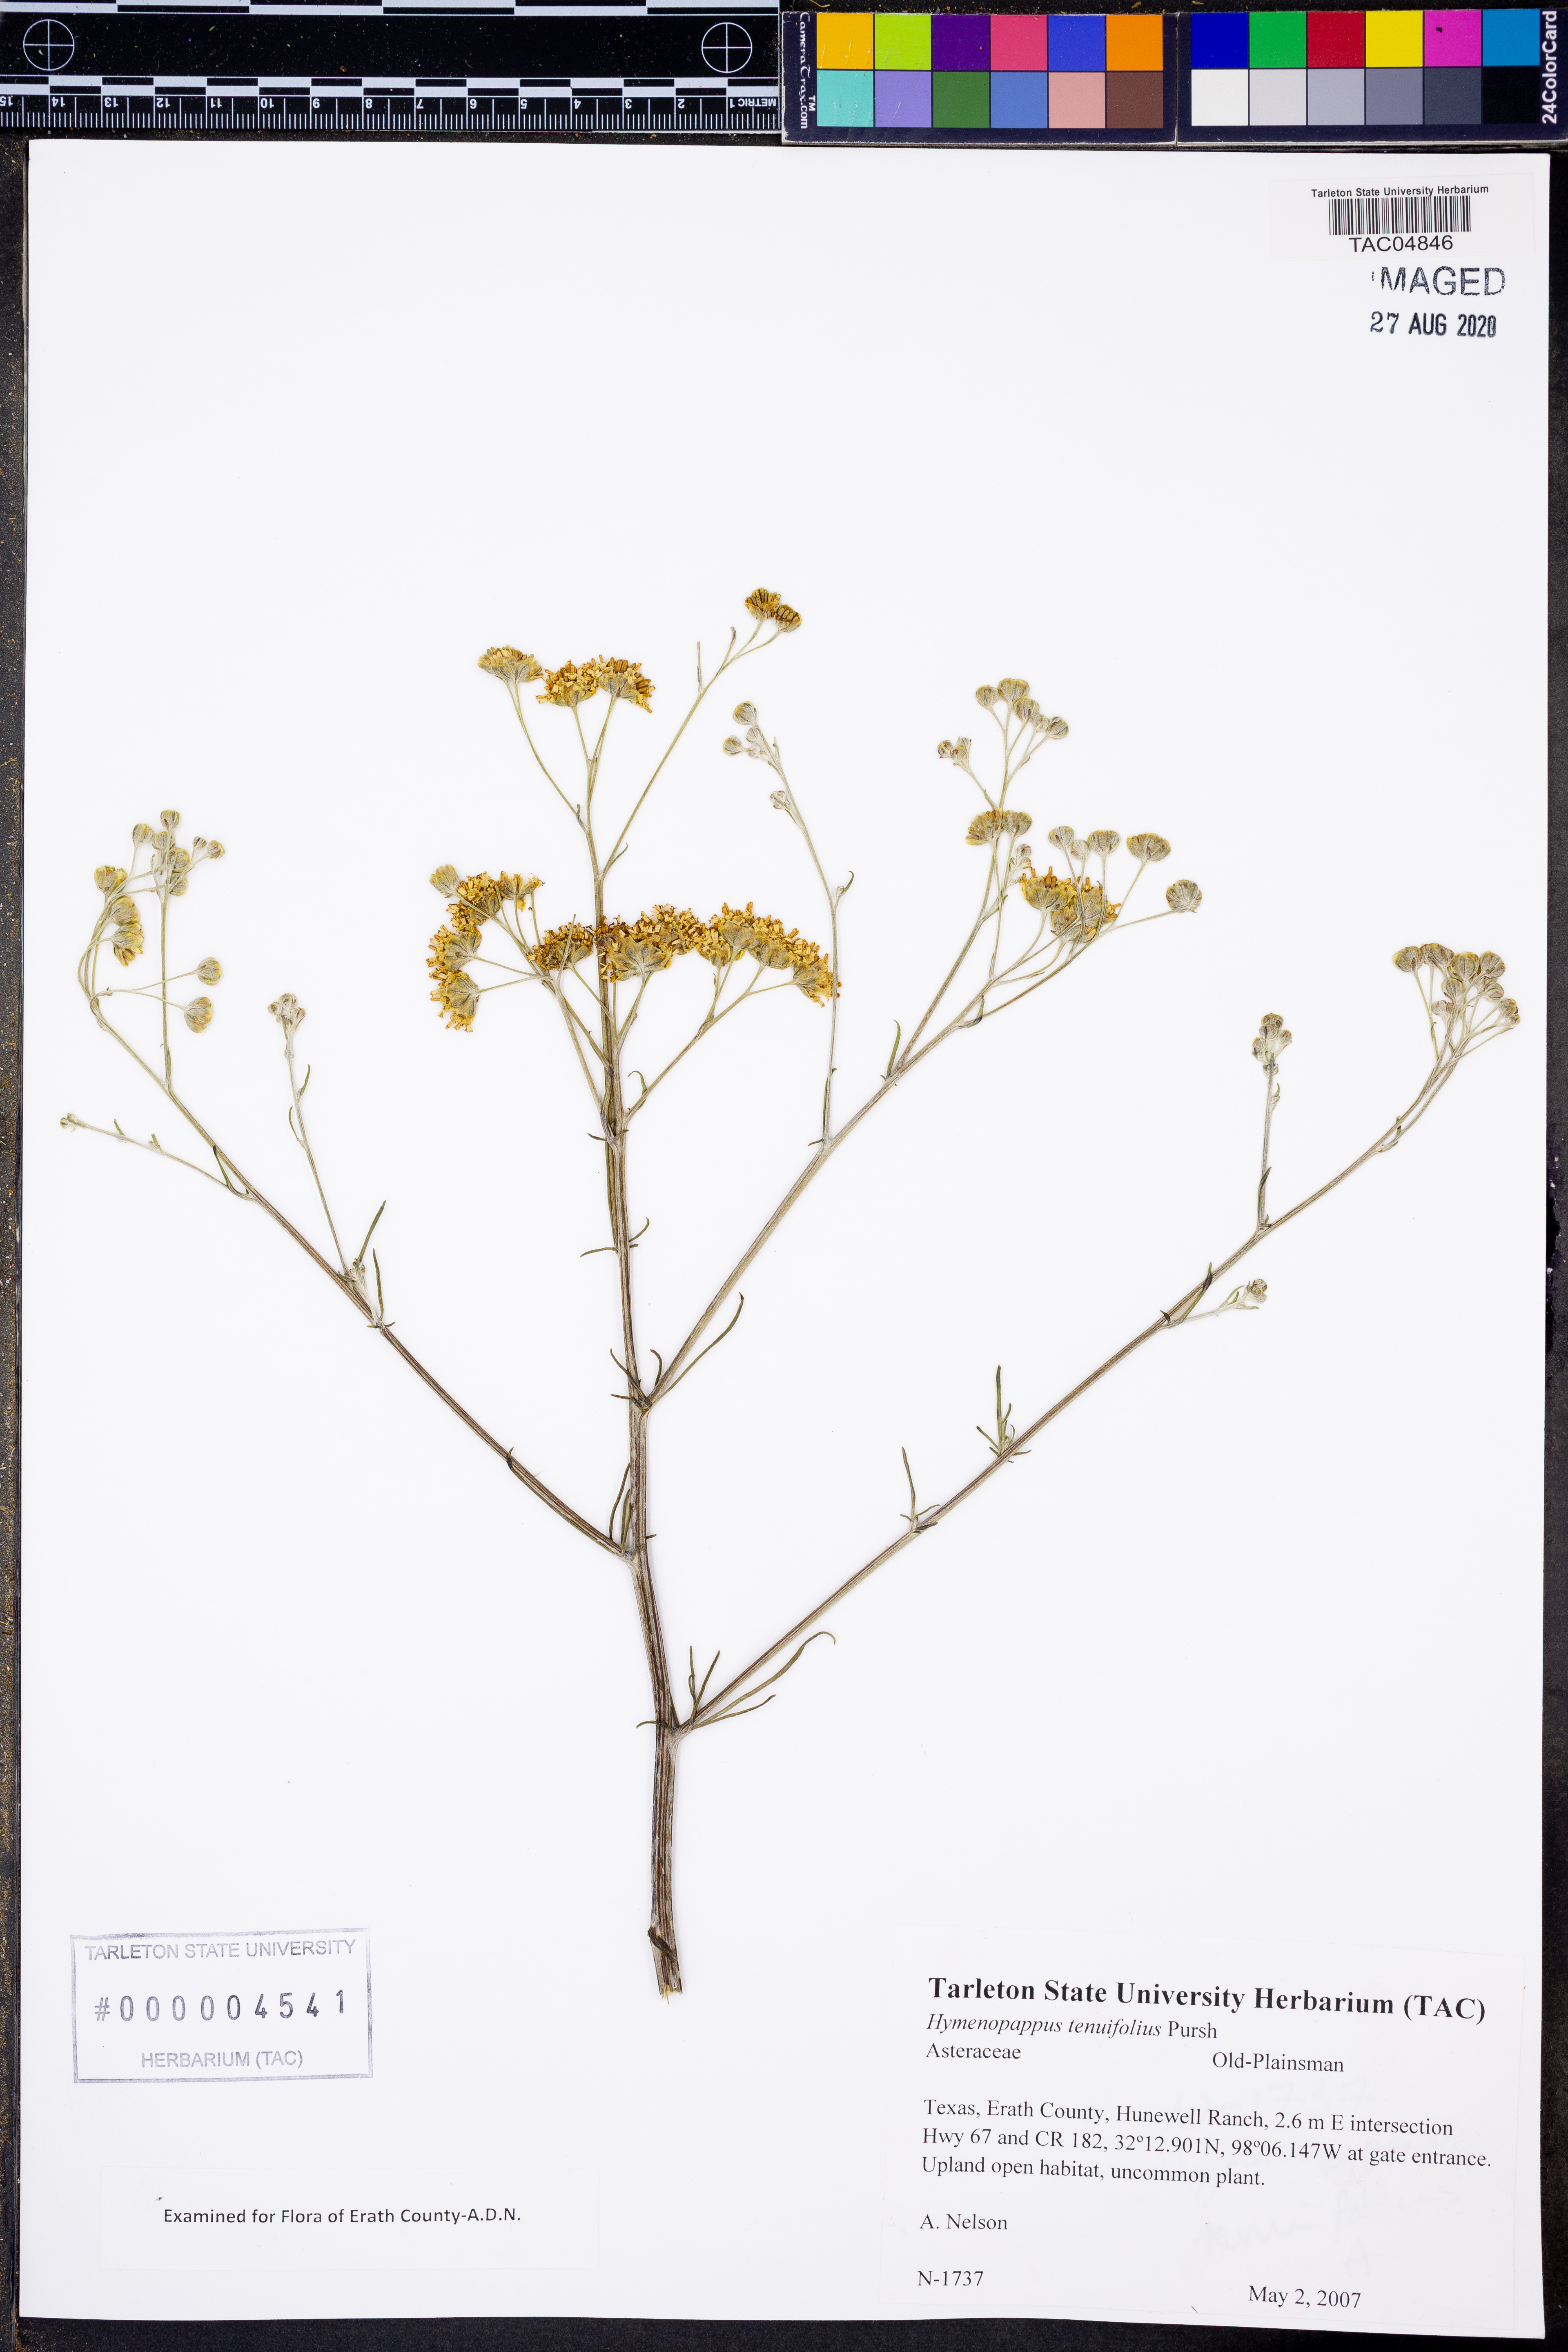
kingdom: Plantae
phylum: Tracheophyta
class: Magnoliopsida
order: Asterales
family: Asteraceae
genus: Hymenopappus
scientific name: Hymenopappus tenuifolius
